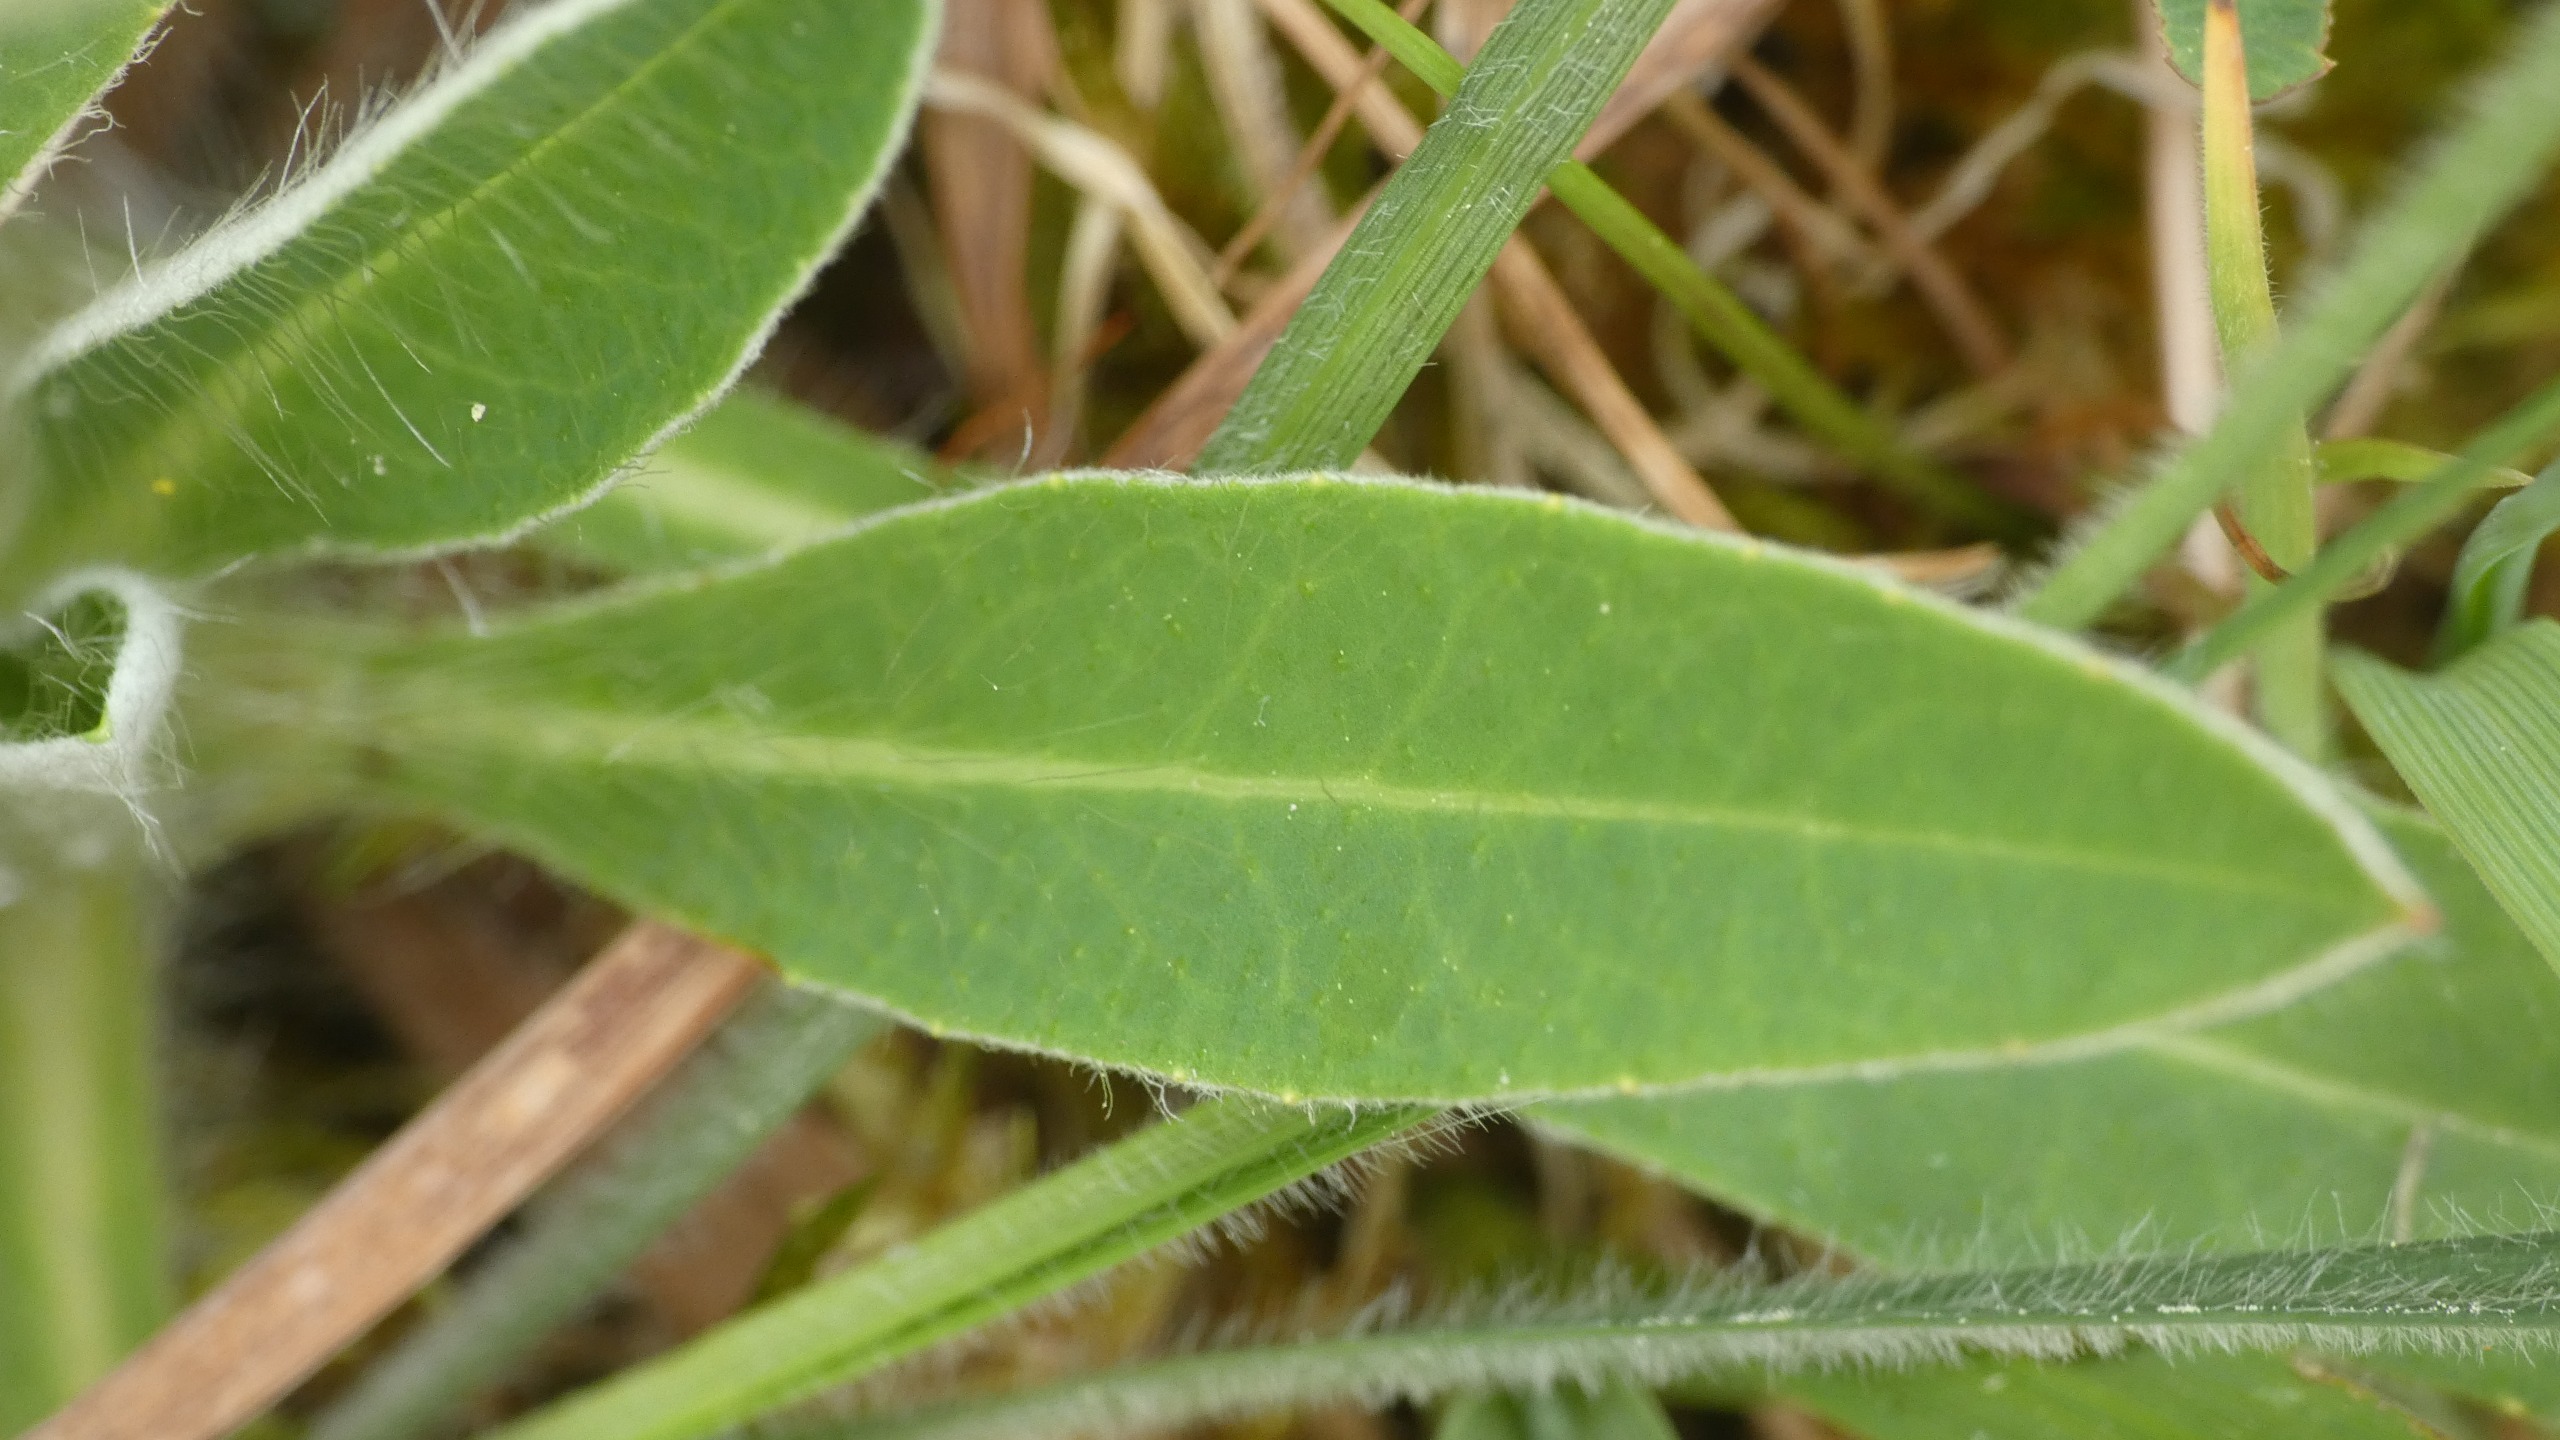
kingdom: Plantae
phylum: Tracheophyta
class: Magnoliopsida
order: Asterales
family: Asteraceae
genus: Pilosella
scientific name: Pilosella officinarum
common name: Håret høgeurt
